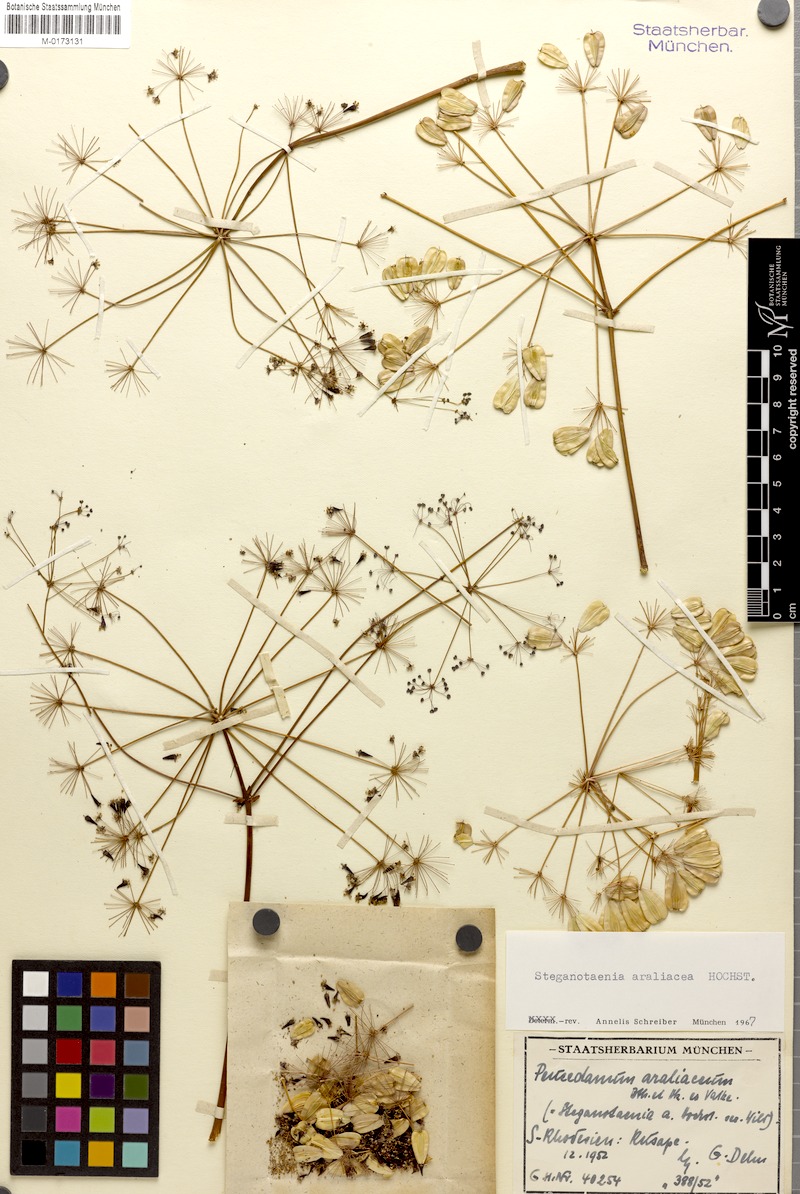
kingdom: Plantae
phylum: Tracheophyta
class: Magnoliopsida
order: Apiales
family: Apiaceae
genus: Steganotaenia
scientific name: Steganotaenia araliacea
